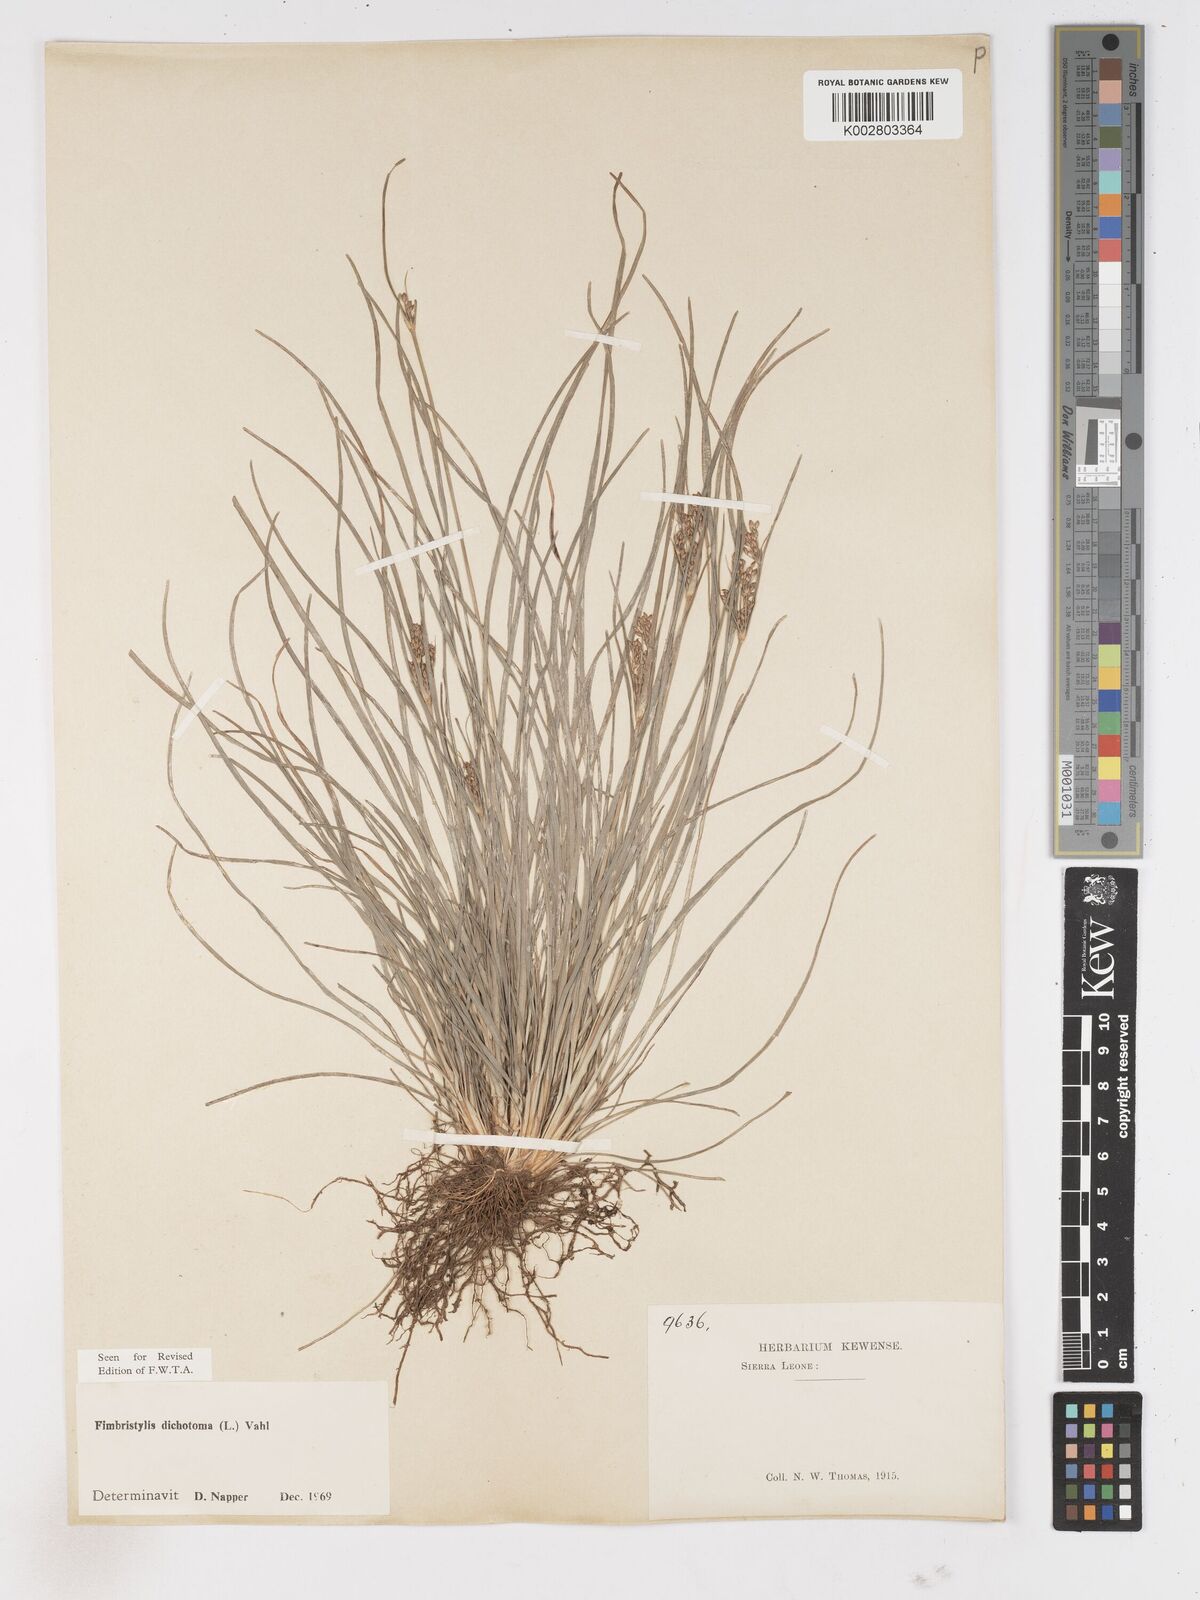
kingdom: Plantae
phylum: Tracheophyta
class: Liliopsida
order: Poales
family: Cyperaceae
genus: Fimbristylis
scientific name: Fimbristylis dichotoma
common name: Forked fimbry
